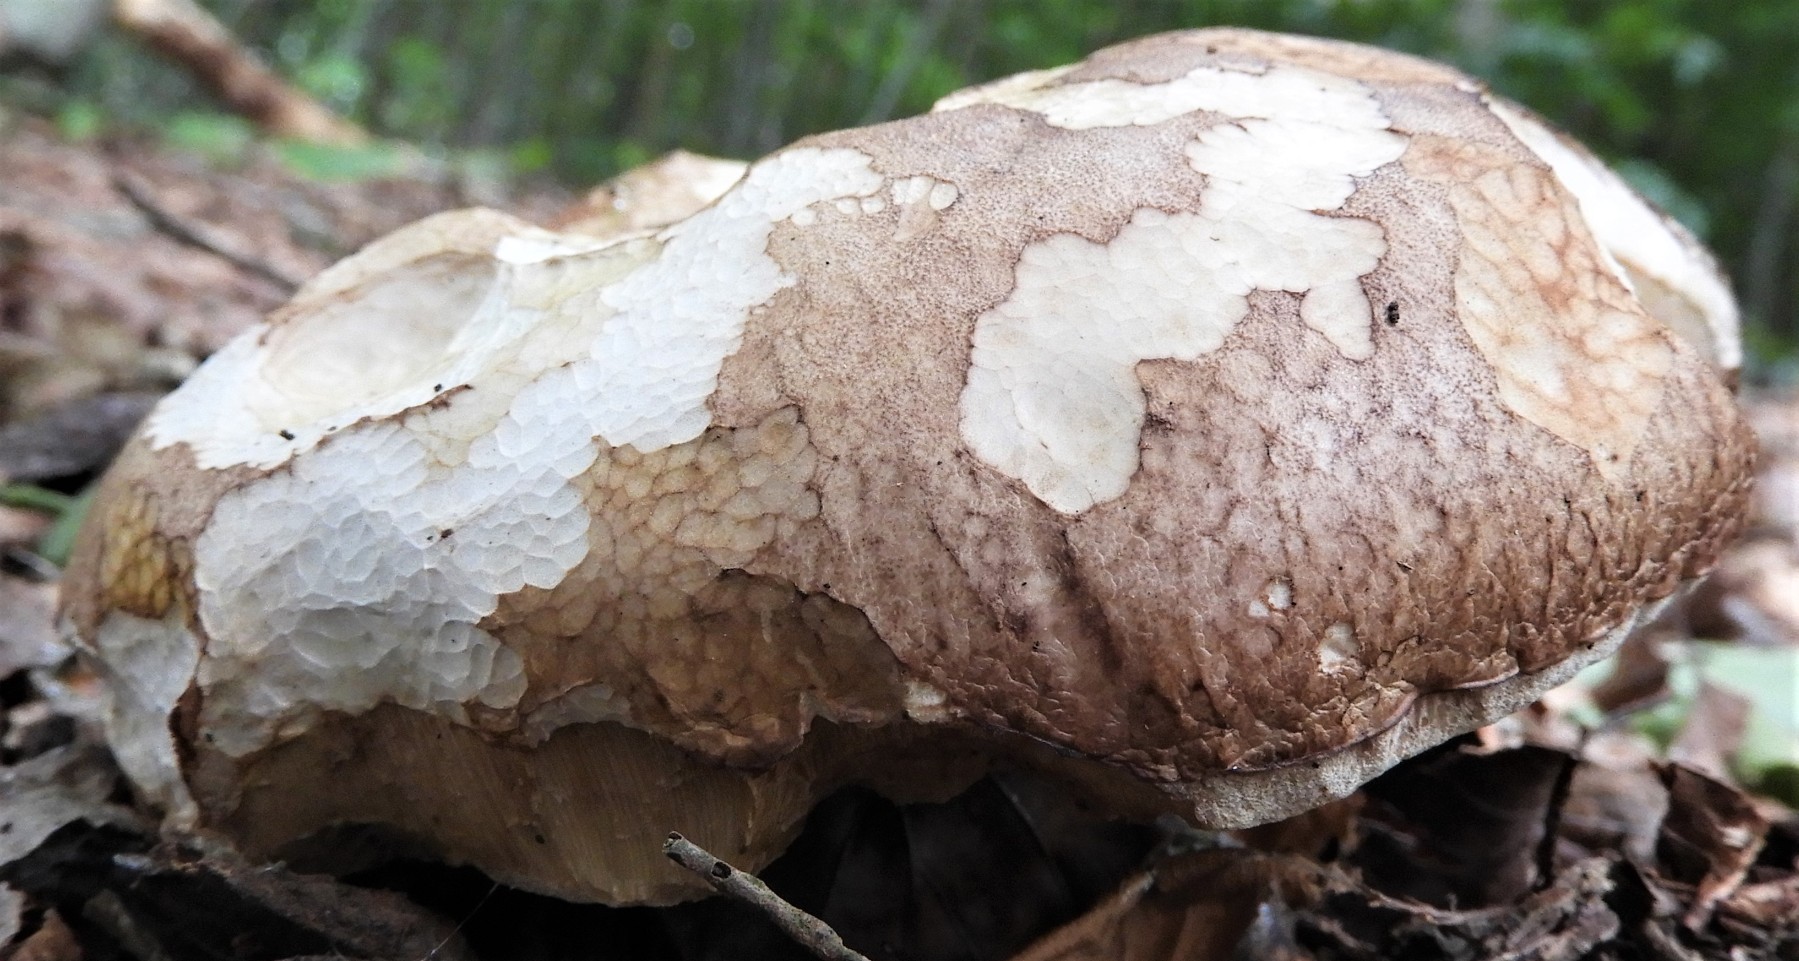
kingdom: Fungi
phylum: Basidiomycota
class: Agaricomycetes
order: Boletales
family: Boletaceae
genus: Boletus
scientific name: Boletus reticulatus
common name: sommer-rørhat
